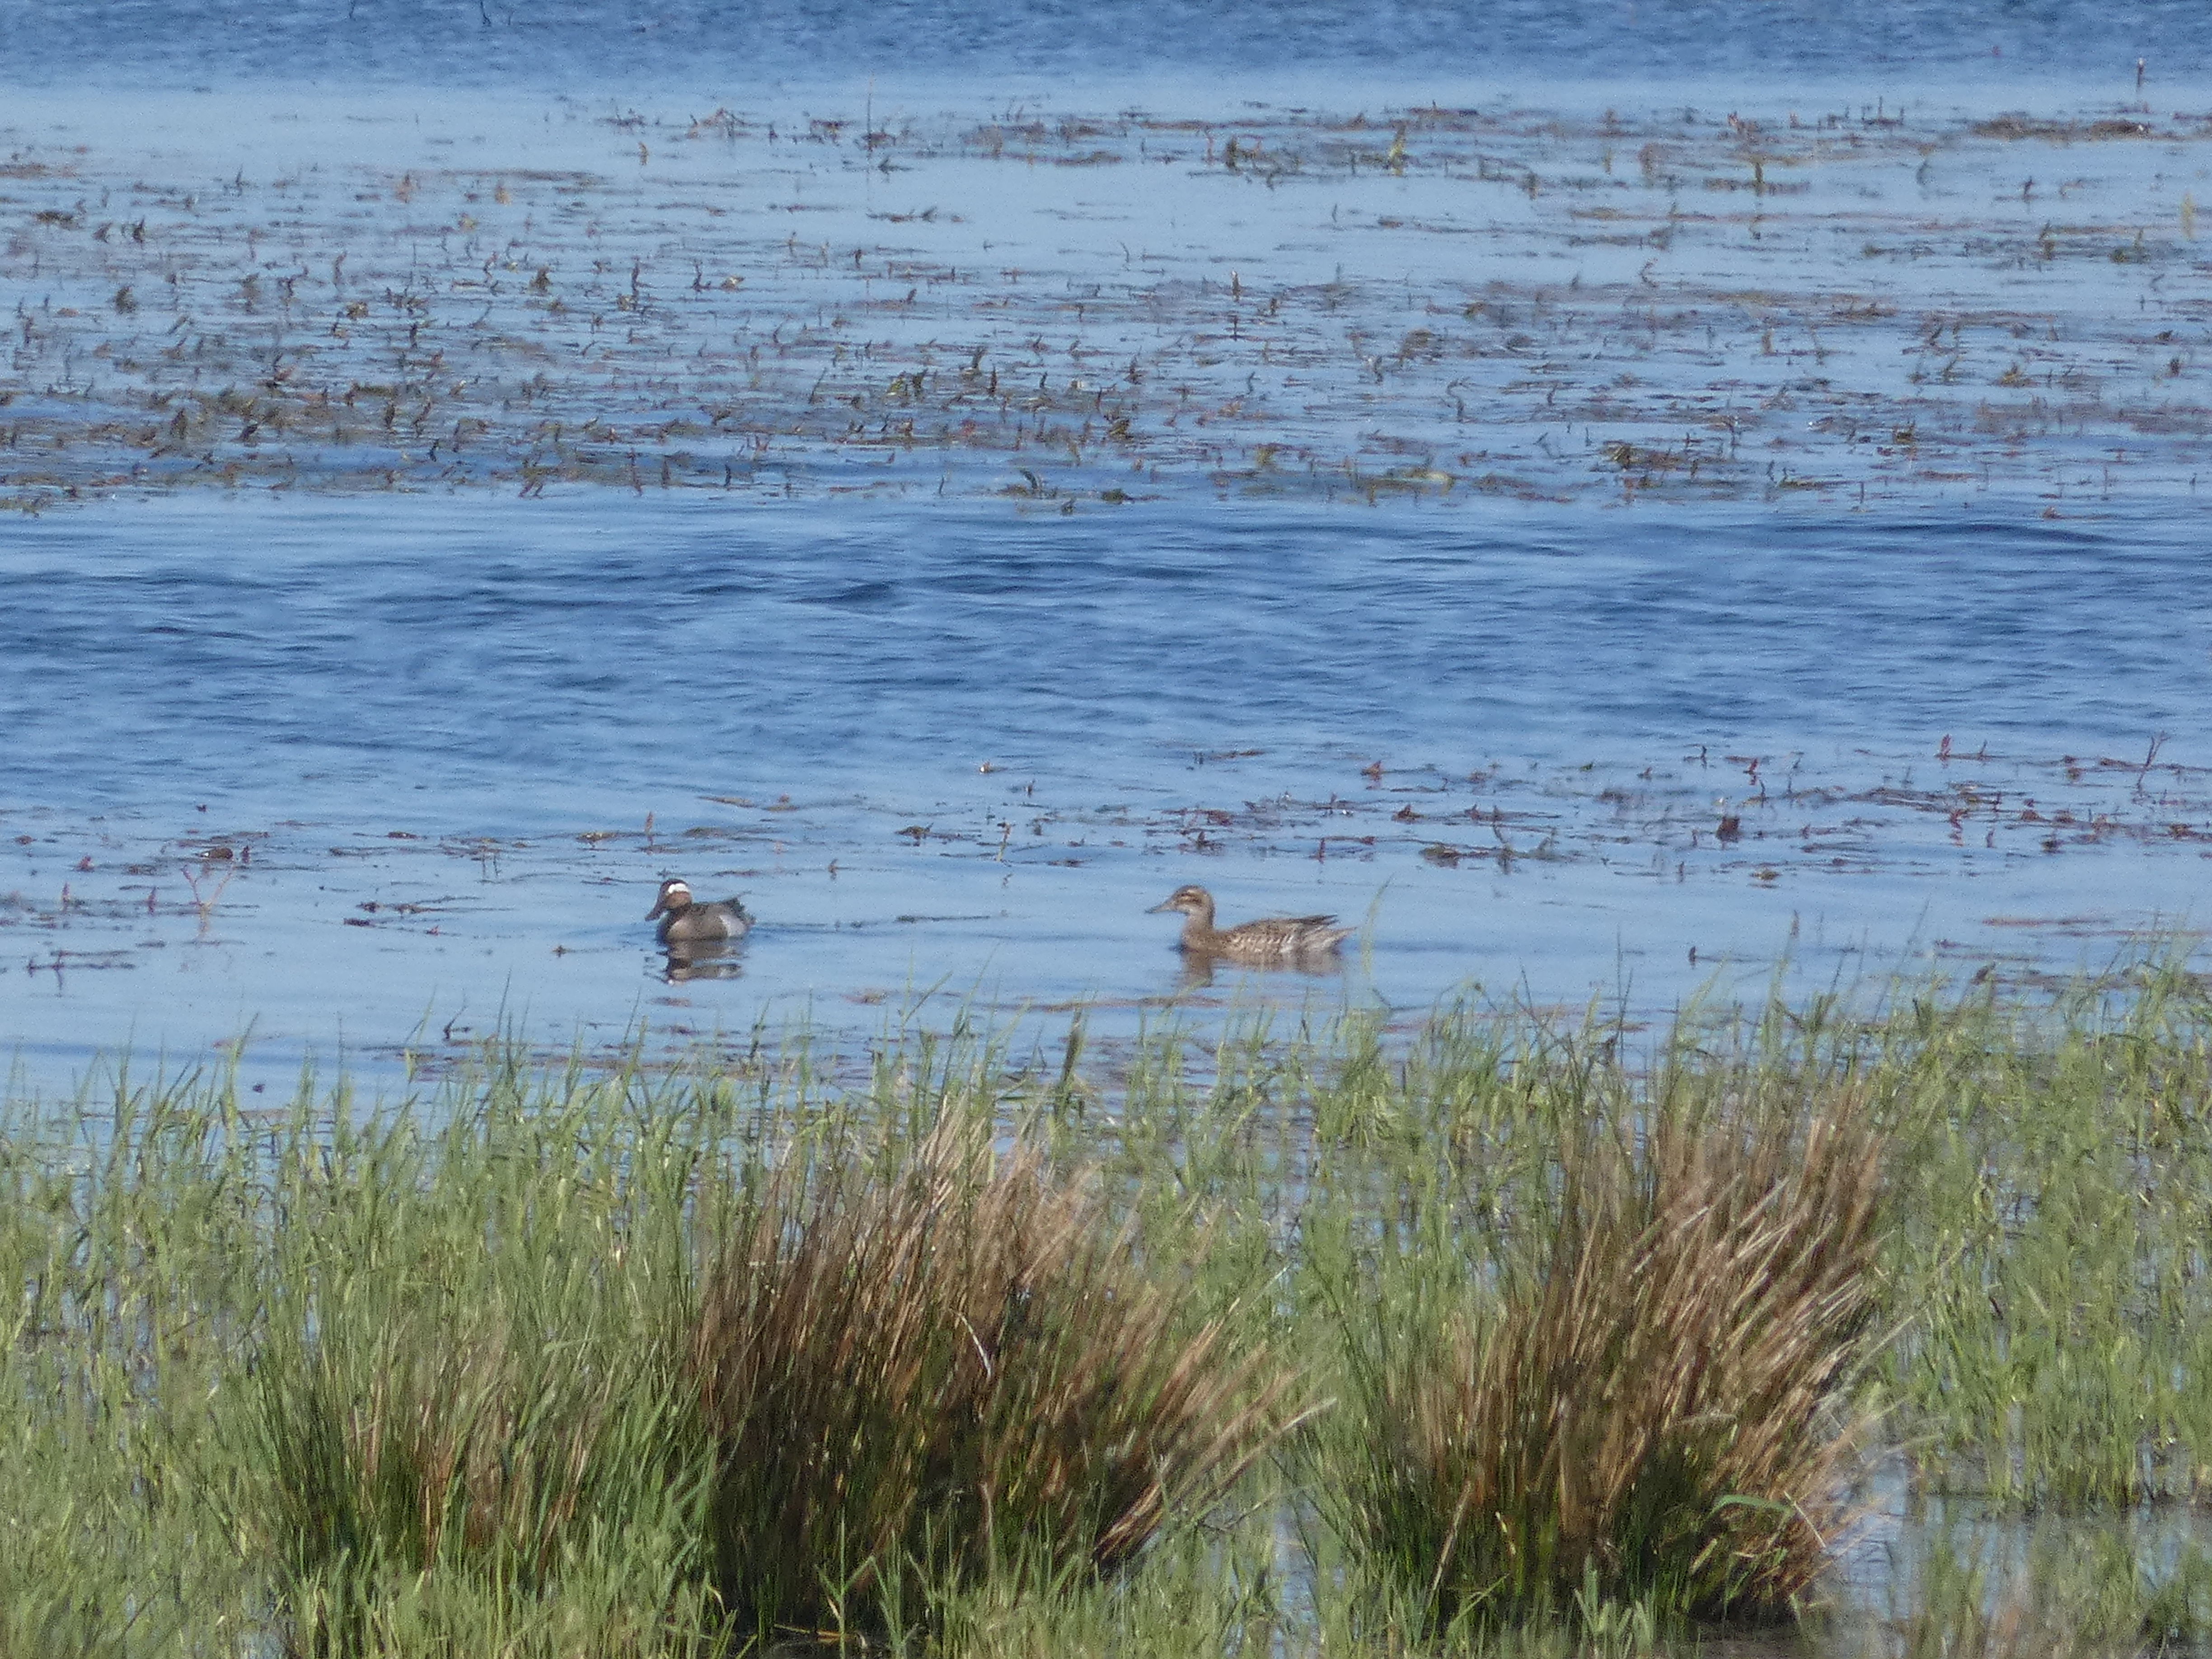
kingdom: Animalia
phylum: Chordata
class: Aves
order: Anseriformes
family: Anatidae
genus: Spatula
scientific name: Spatula querquedula
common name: Atlingand
